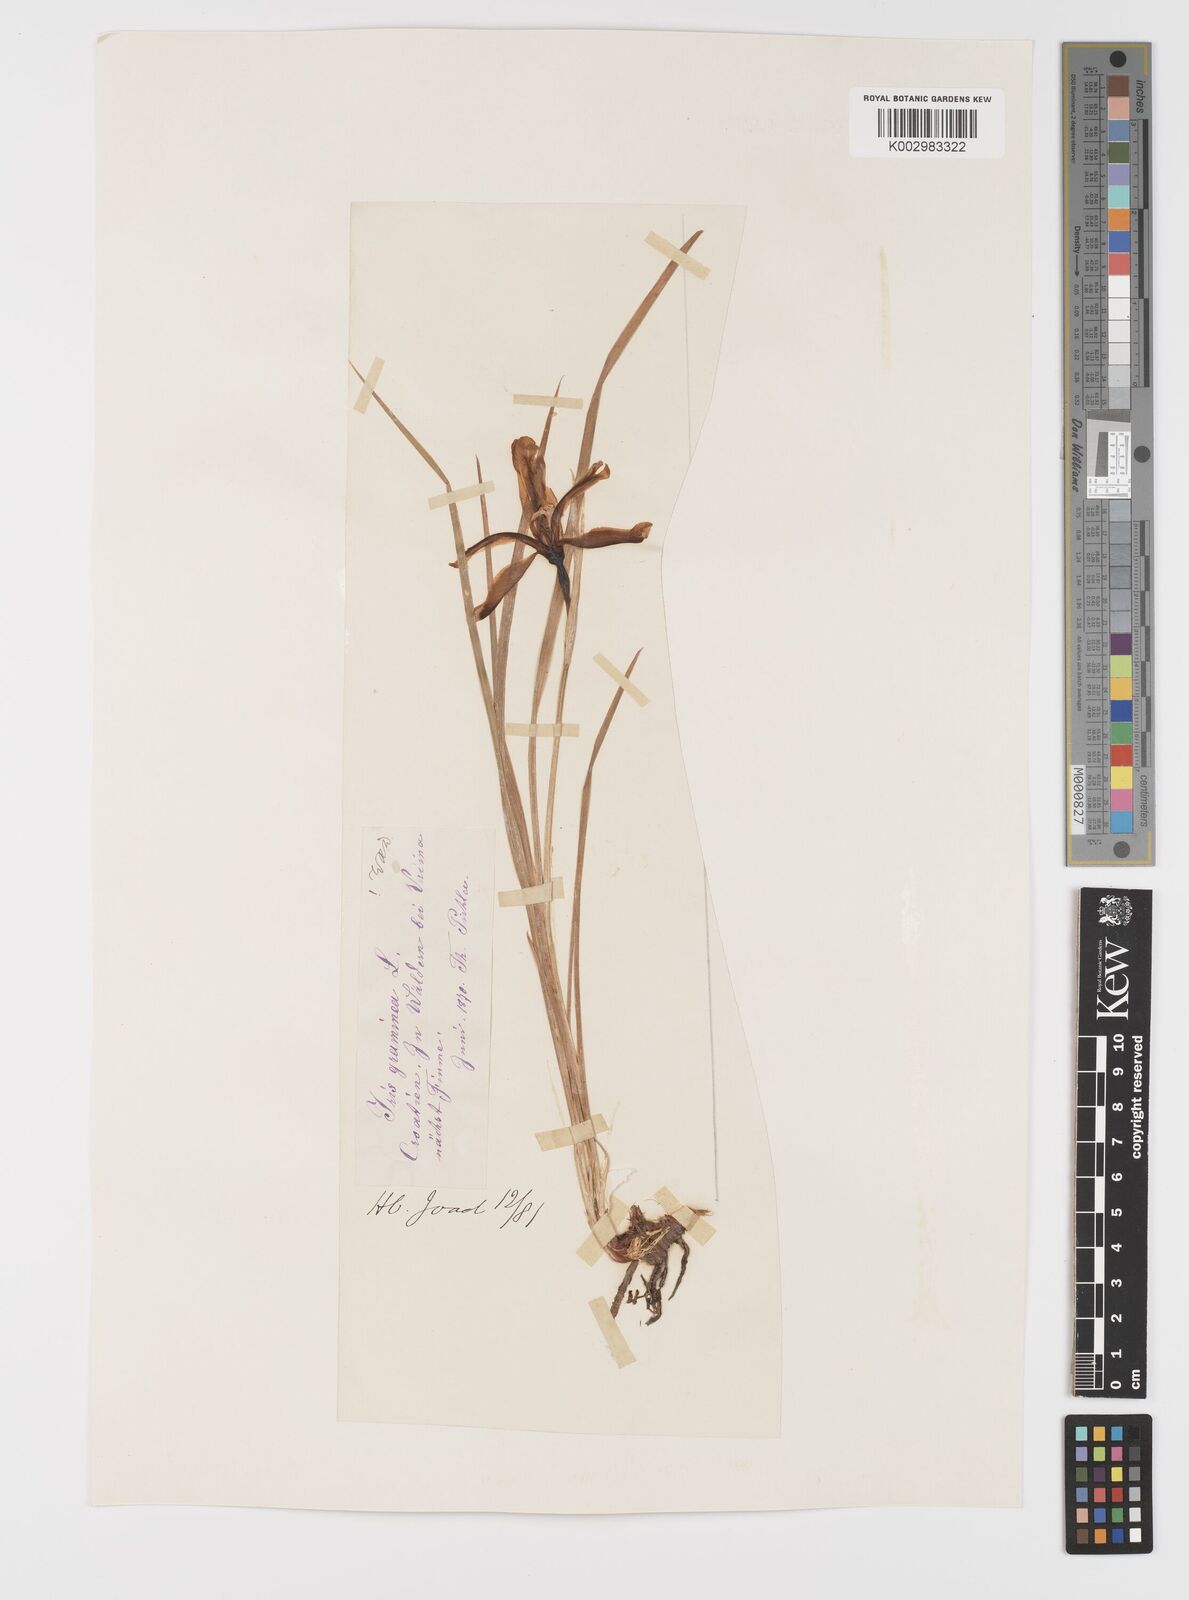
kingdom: Plantae
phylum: Tracheophyta
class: Liliopsida
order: Asparagales
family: Iridaceae
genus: Iris
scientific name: Iris graminea
